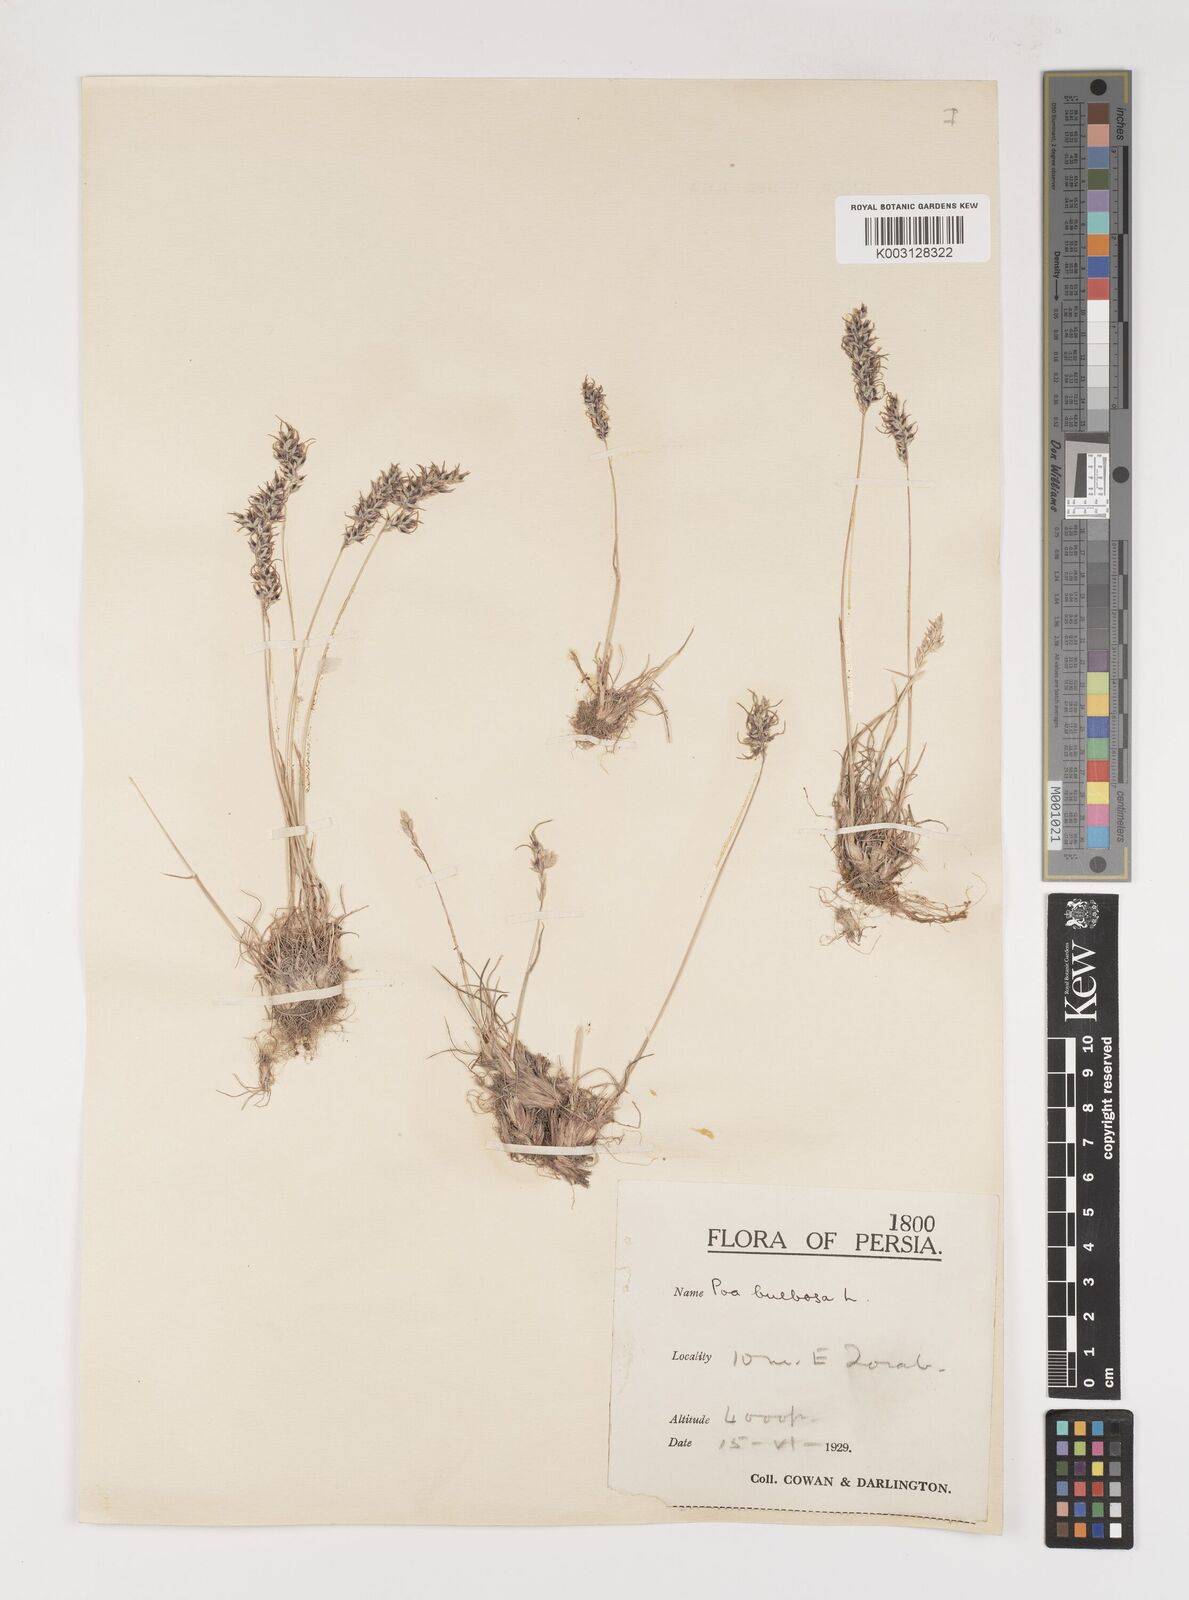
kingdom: Plantae
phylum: Tracheophyta
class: Liliopsida
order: Poales
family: Poaceae
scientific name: Poaceae
